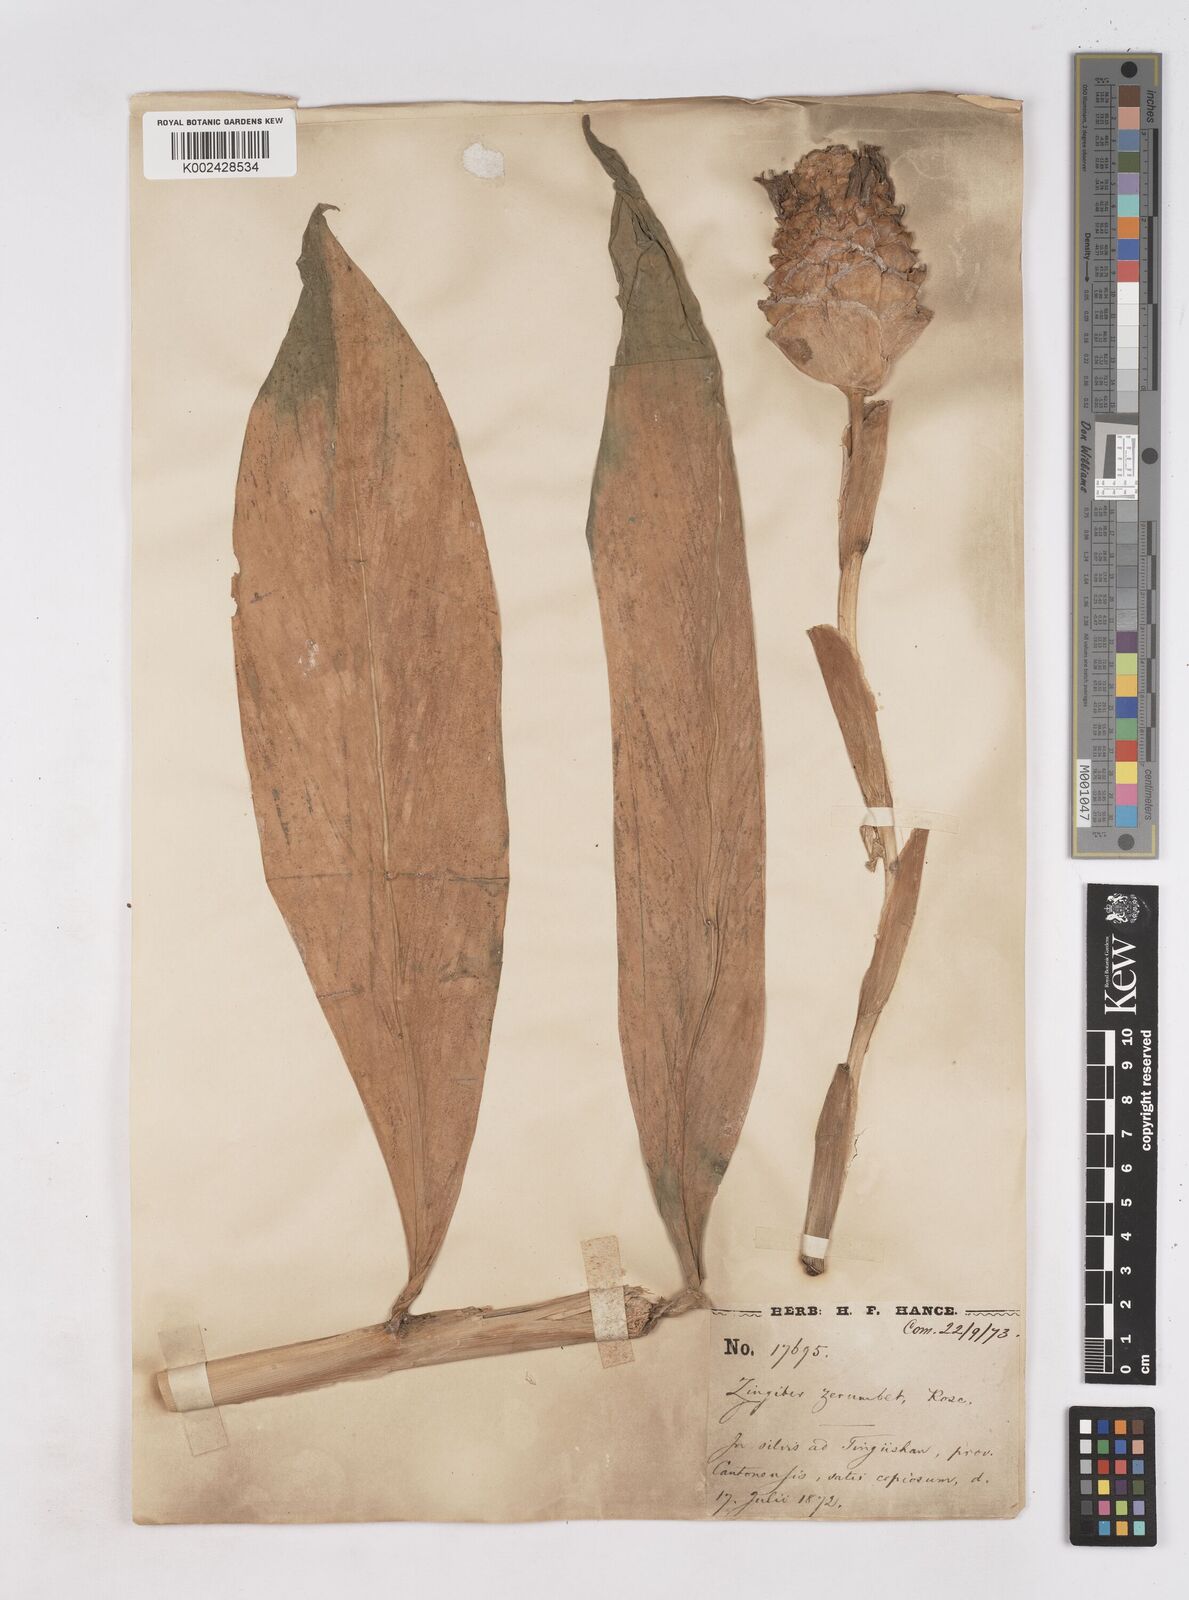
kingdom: Plantae
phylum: Tracheophyta
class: Liliopsida
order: Zingiberales
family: Zingiberaceae
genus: Zingiber
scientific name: Zingiber zerumbet
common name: Bitter ginger
